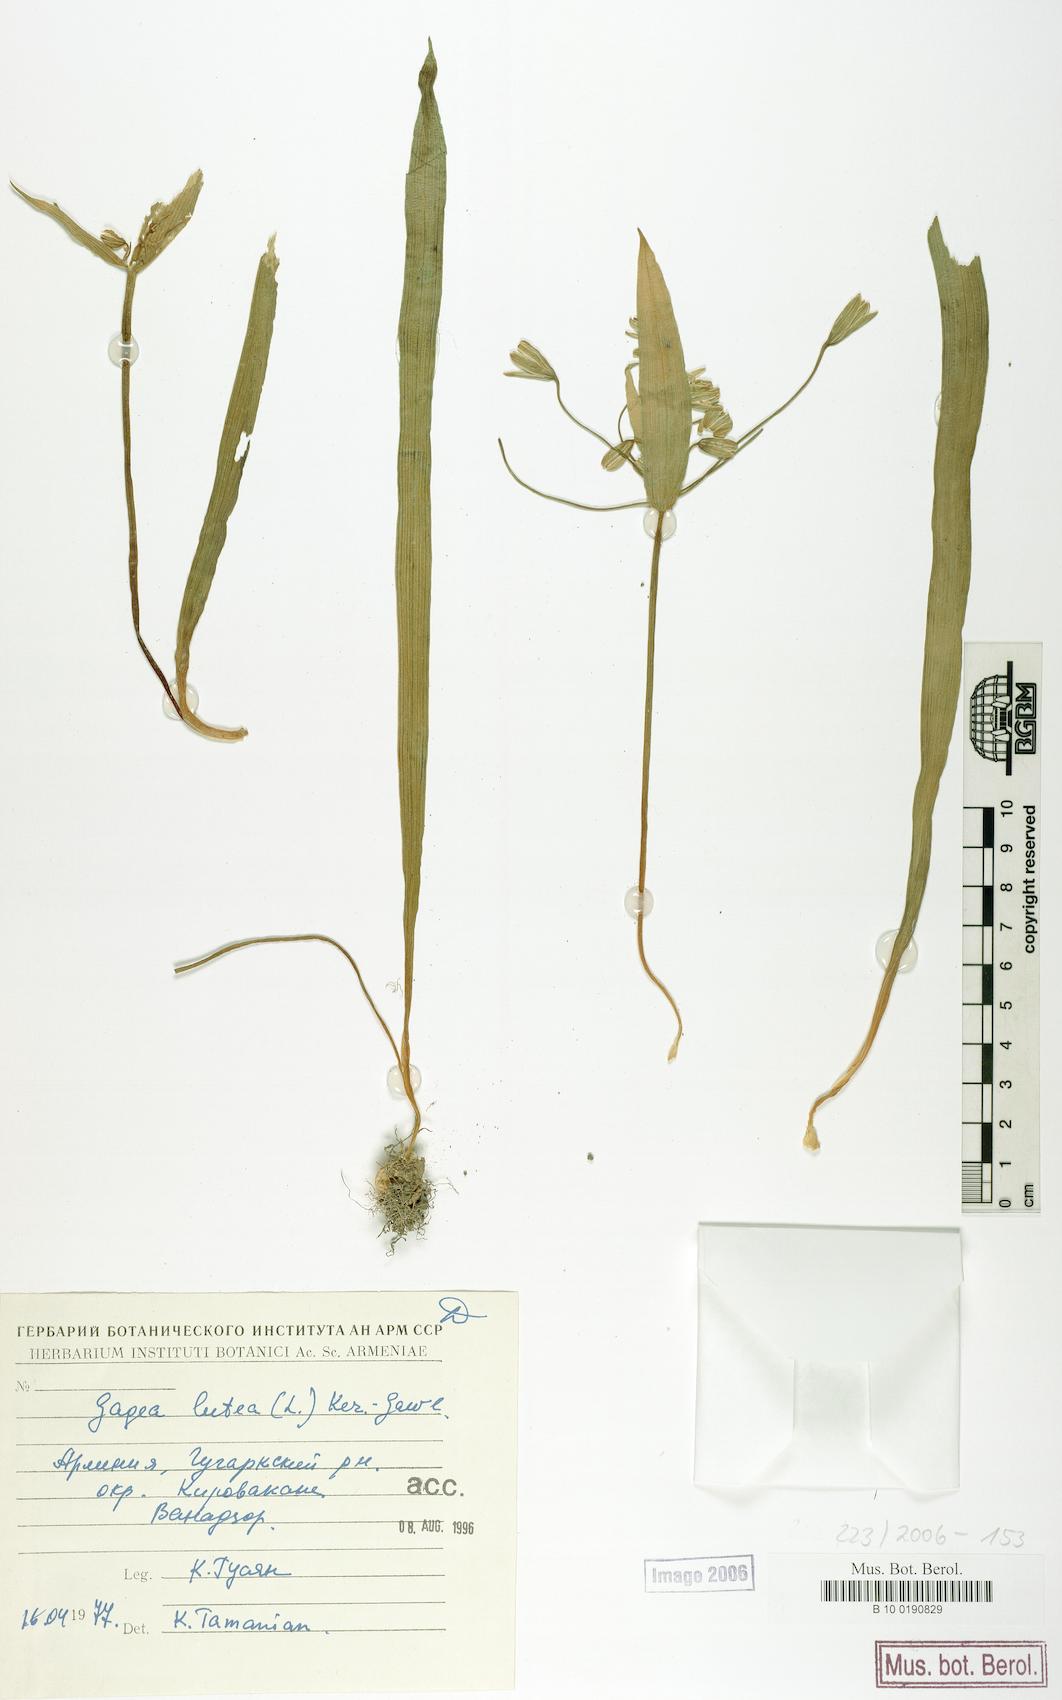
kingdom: Plantae
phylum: Tracheophyta
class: Liliopsida
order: Liliales
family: Liliaceae
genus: Gagea
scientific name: Gagea lutea
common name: Yellow star-of-bethlehem
